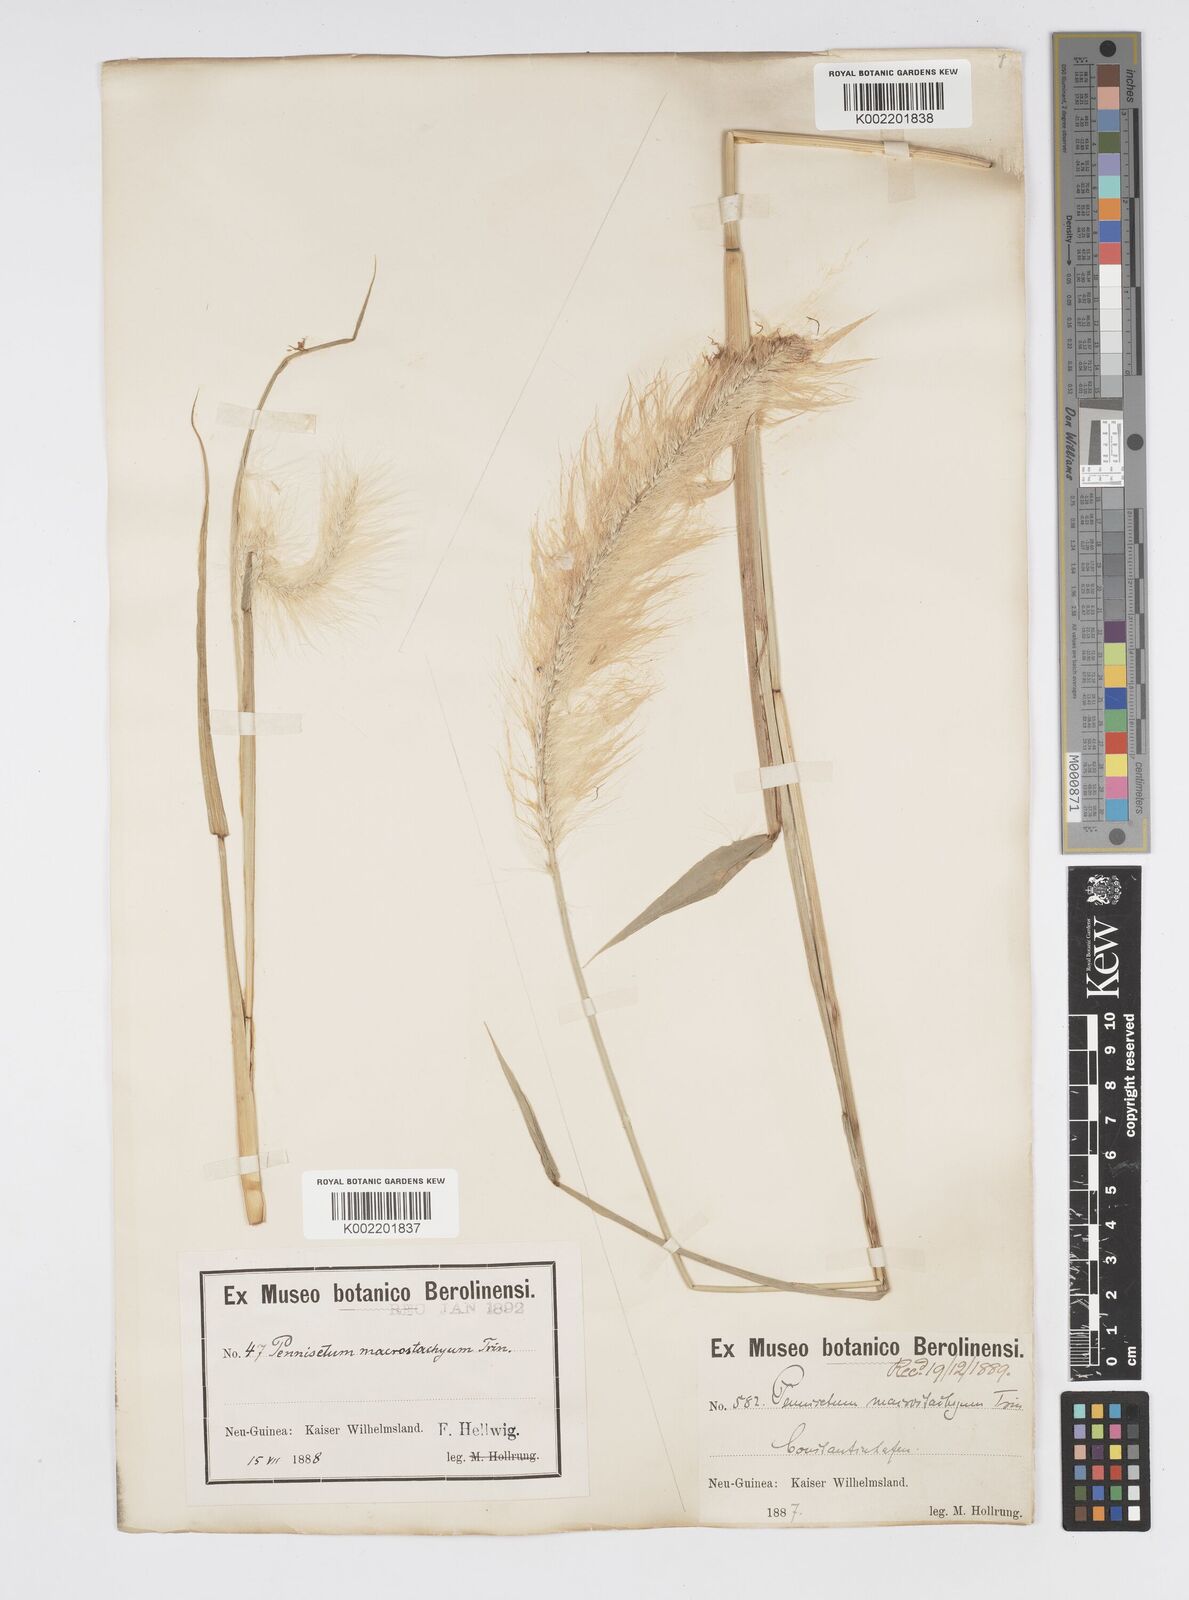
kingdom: Plantae
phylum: Tracheophyta
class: Liliopsida
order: Poales
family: Poaceae
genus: Cenchrus
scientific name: Cenchrus purpureus
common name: Elephant grass
